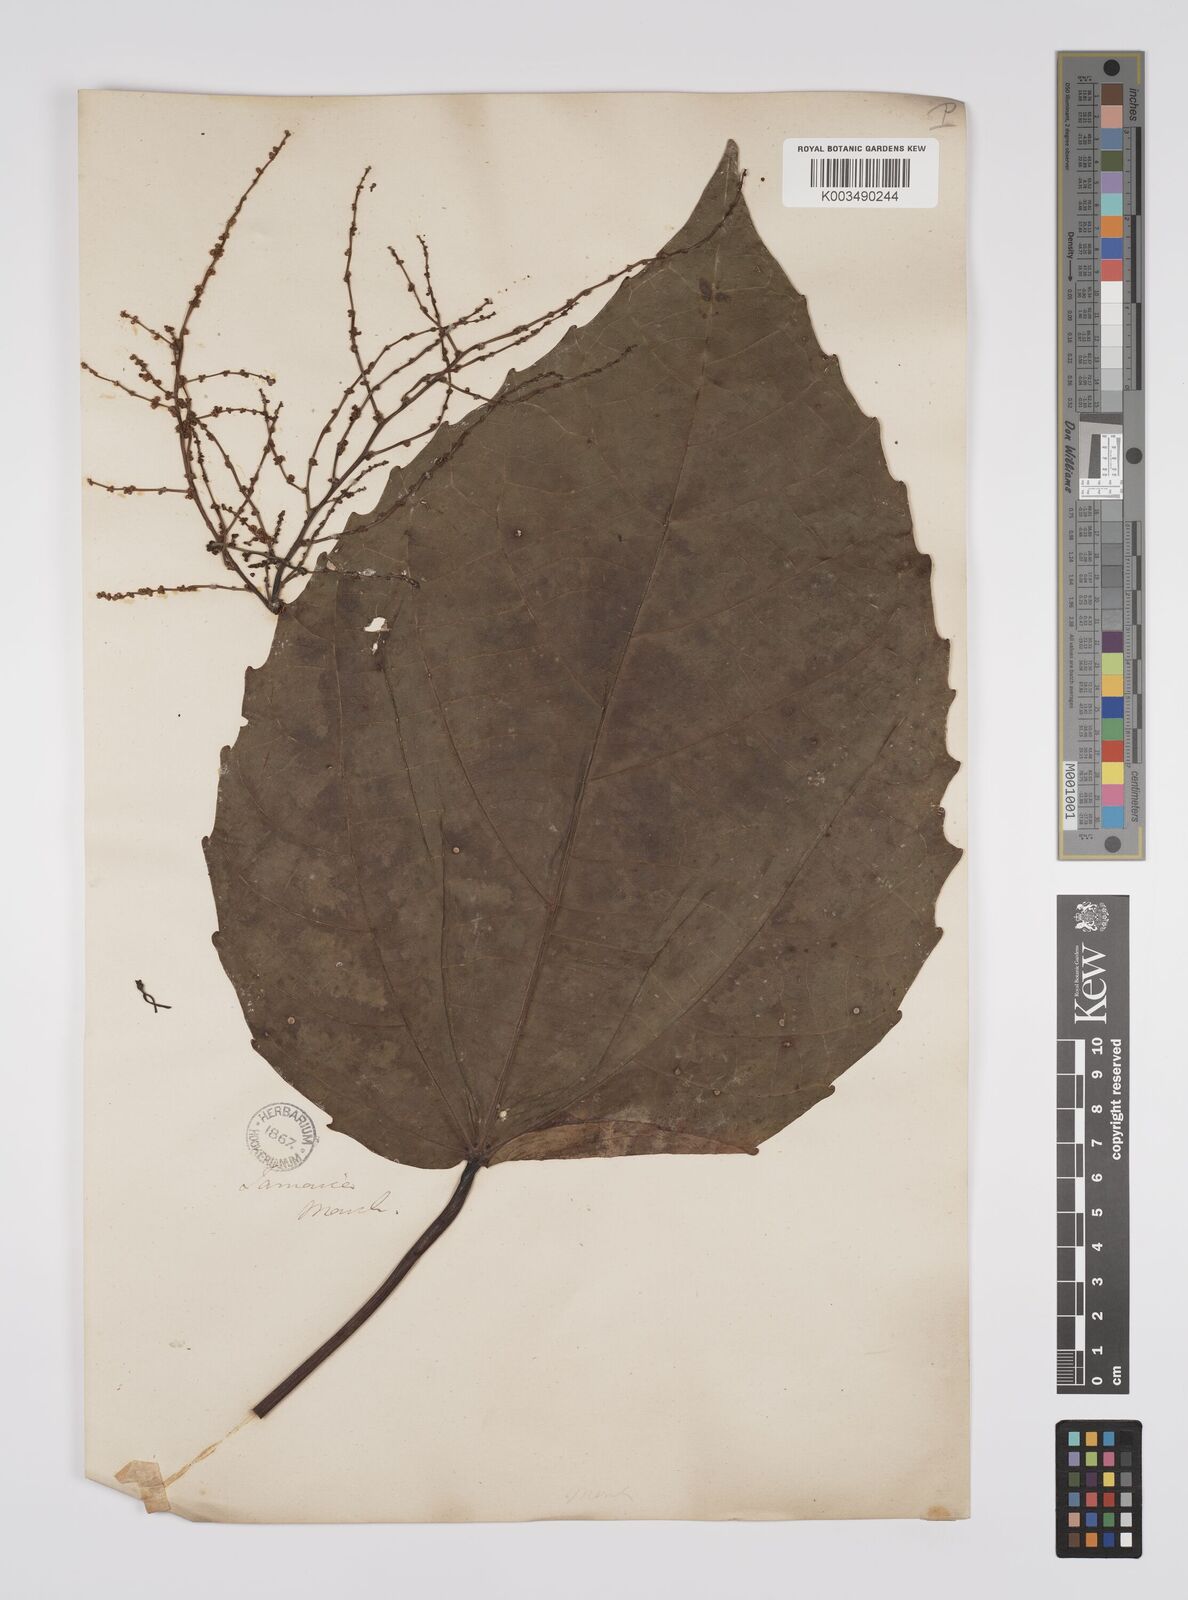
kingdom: Plantae
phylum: Tracheophyta
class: Magnoliopsida
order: Malpighiales
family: Euphorbiaceae
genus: Alchornea
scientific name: Alchornea latifolia
